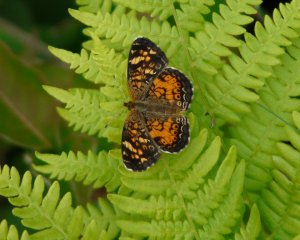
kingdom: Animalia
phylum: Arthropoda
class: Insecta
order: Lepidoptera
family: Nymphalidae
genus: Phyciodes
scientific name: Phyciodes tharos
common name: Pearl Crescent
